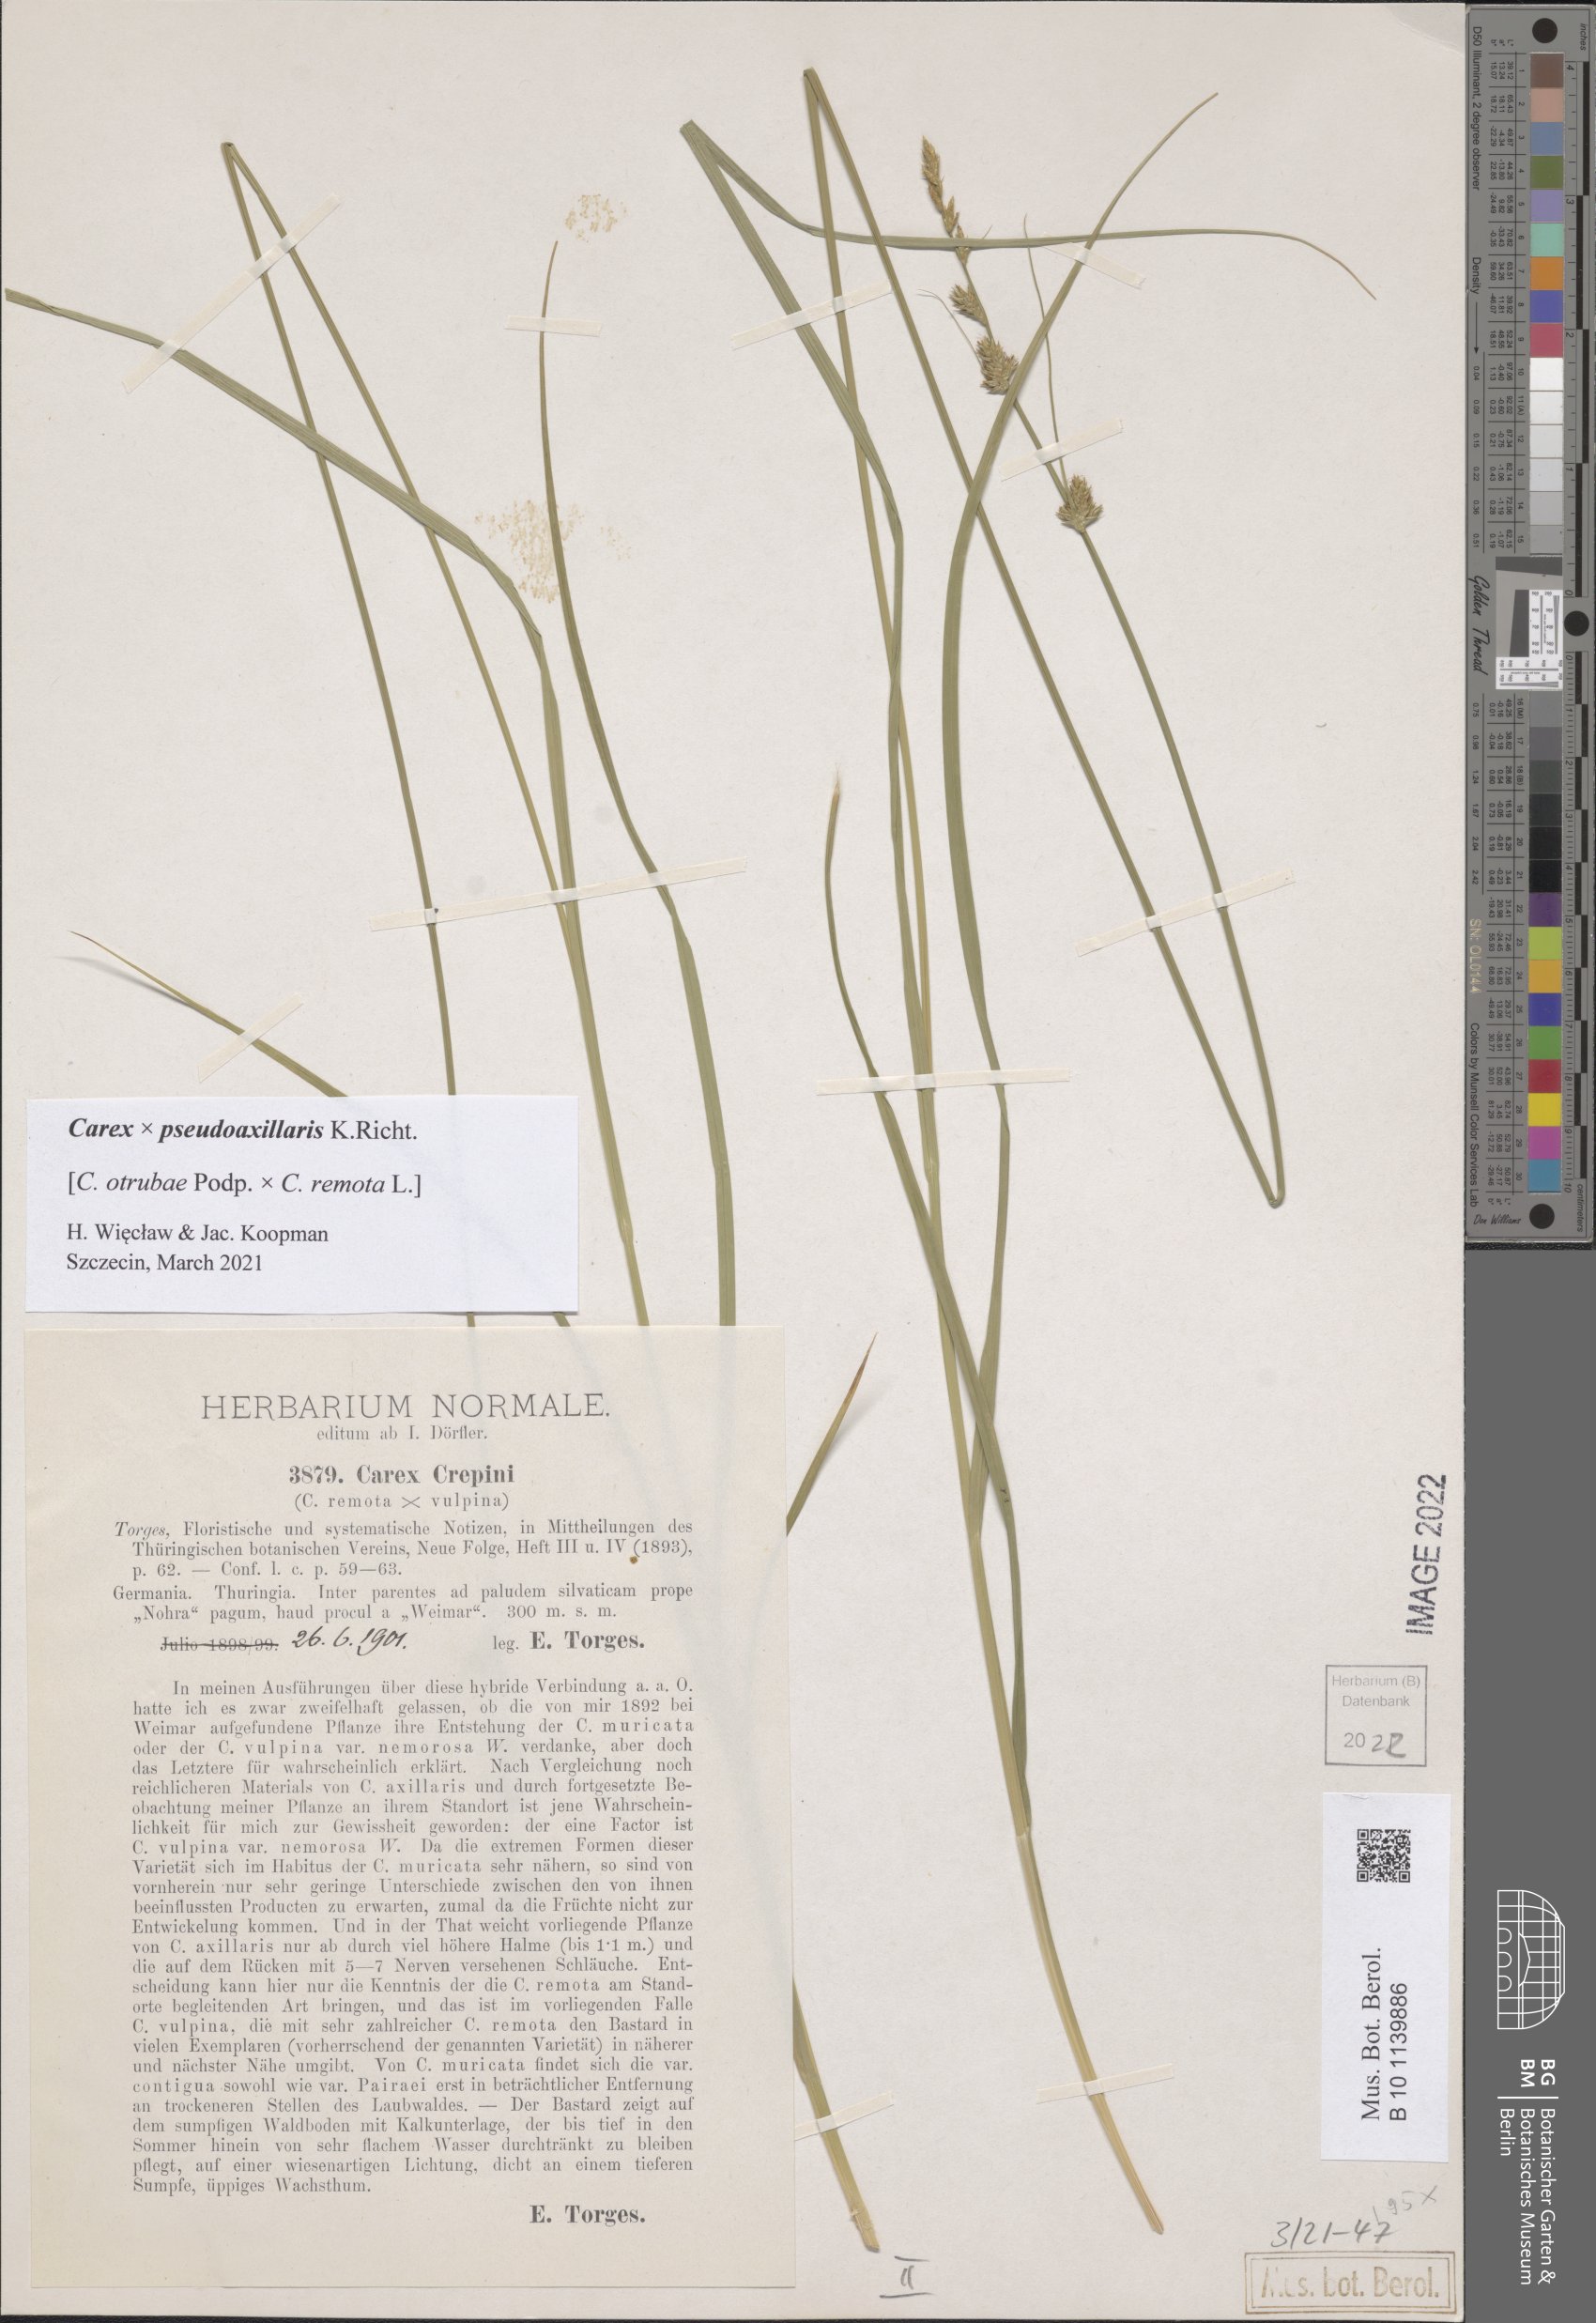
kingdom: Plantae
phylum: Tracheophyta
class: Liliopsida
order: Poales
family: Cyperaceae
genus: Carex
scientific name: Carex pseudoaxillaris
